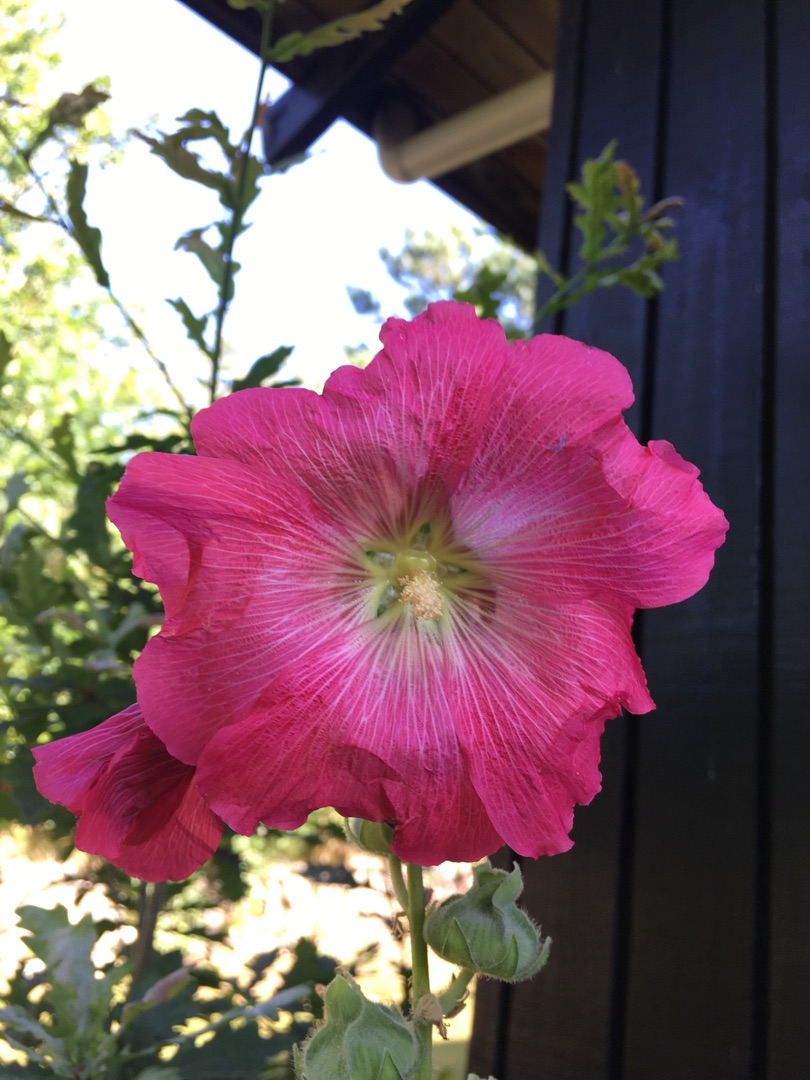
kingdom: Plantae
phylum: Tracheophyta
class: Magnoliopsida
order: Malvales
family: Malvaceae
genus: Alcea
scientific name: Alcea rosea
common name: Have-stokrose
